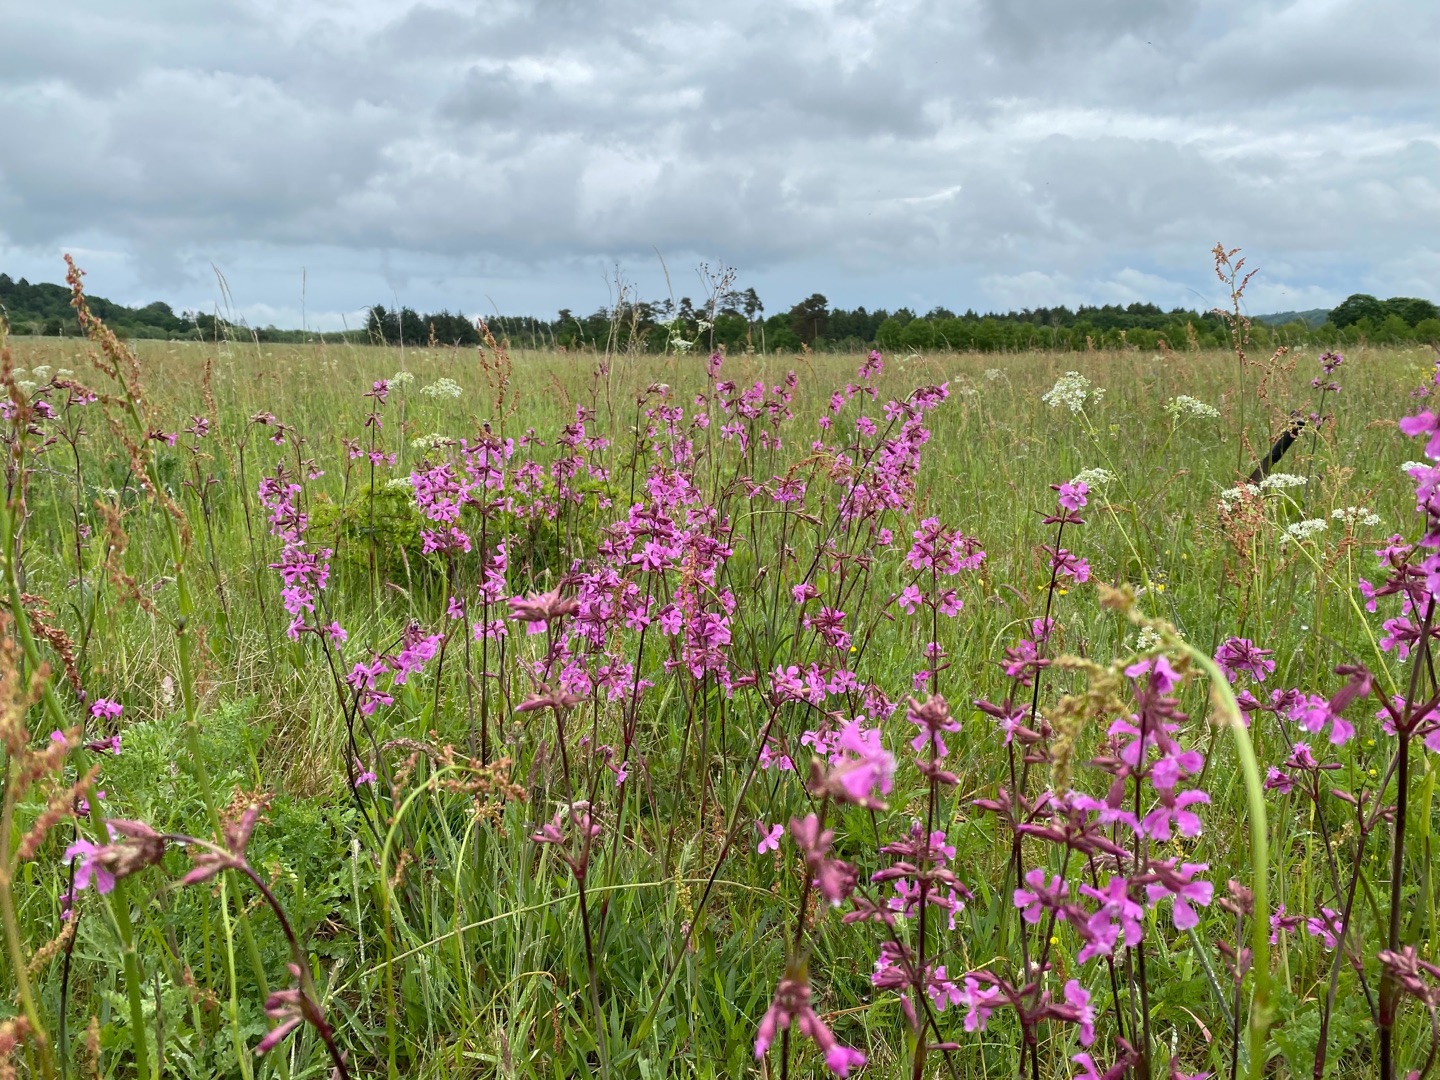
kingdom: Plantae
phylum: Tracheophyta
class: Magnoliopsida
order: Caryophyllales
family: Caryophyllaceae
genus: Viscaria
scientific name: Viscaria vulgaris
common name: Tjærenellike
